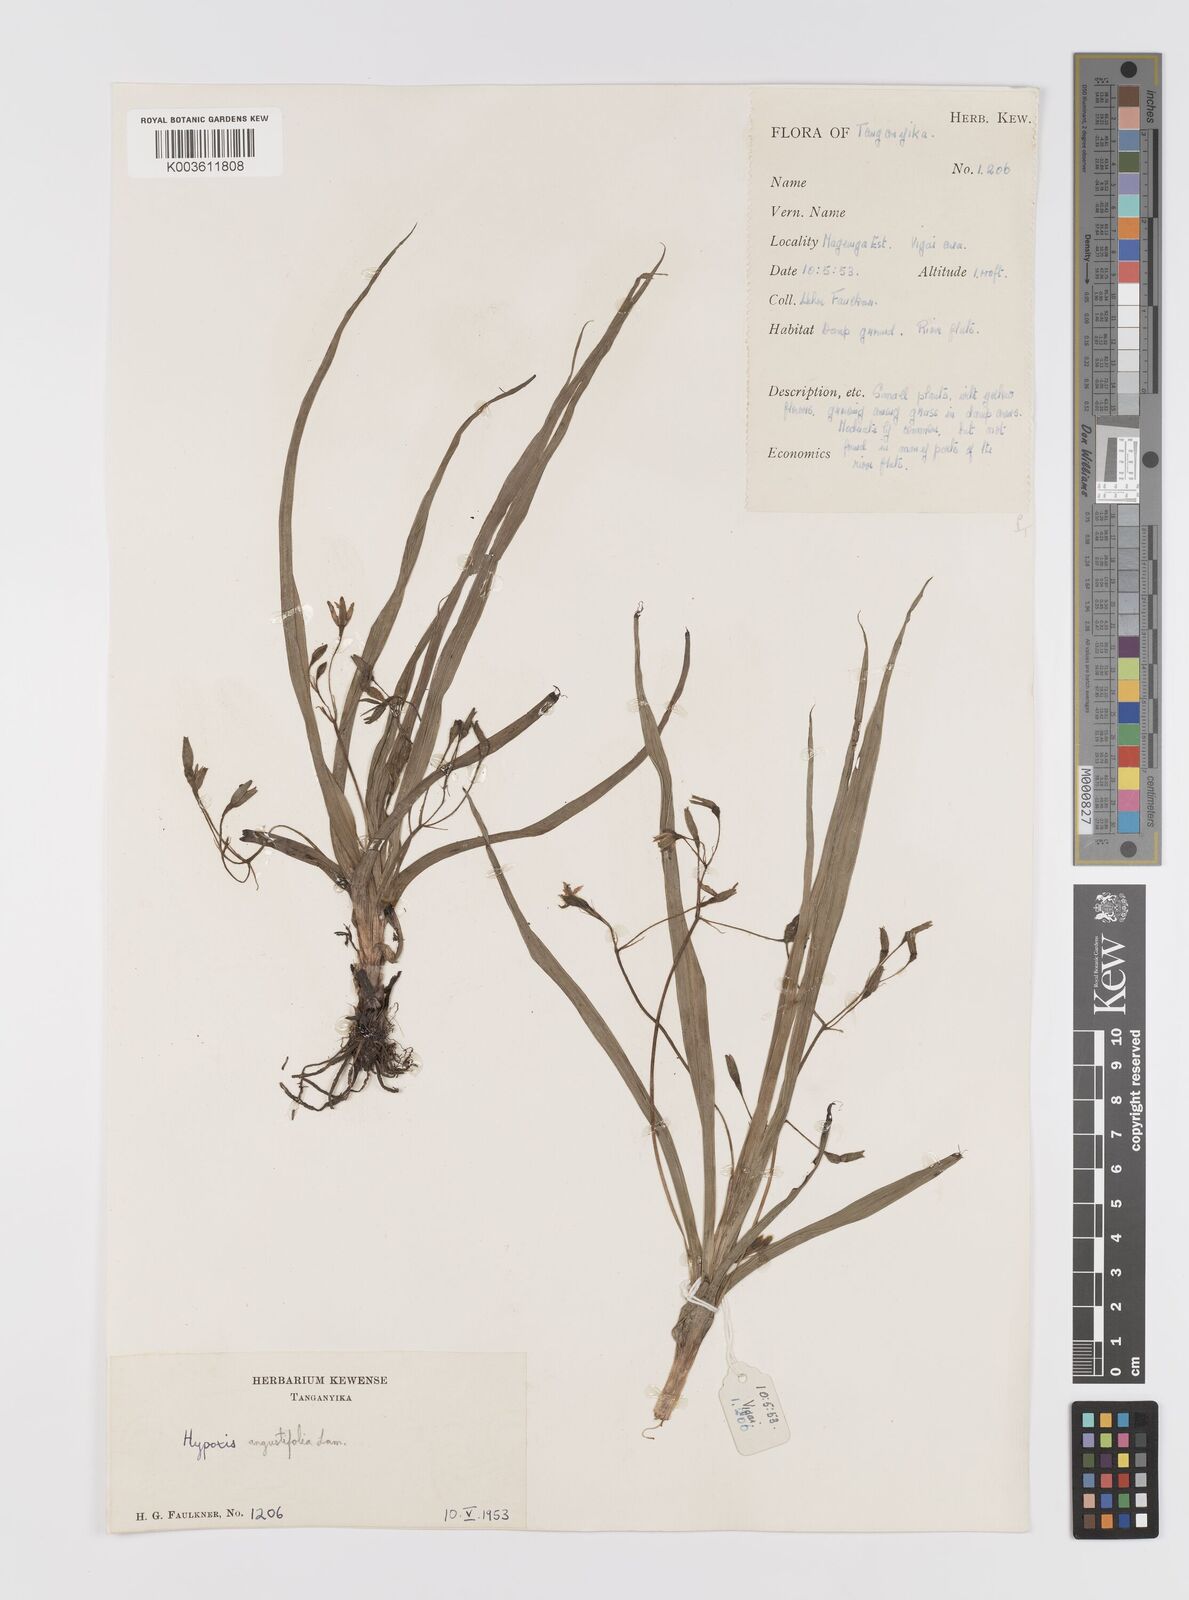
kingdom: Plantae
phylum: Tracheophyta
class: Liliopsida
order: Asparagales
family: Hypoxidaceae
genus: Hypoxis
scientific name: Hypoxis angustifolia
